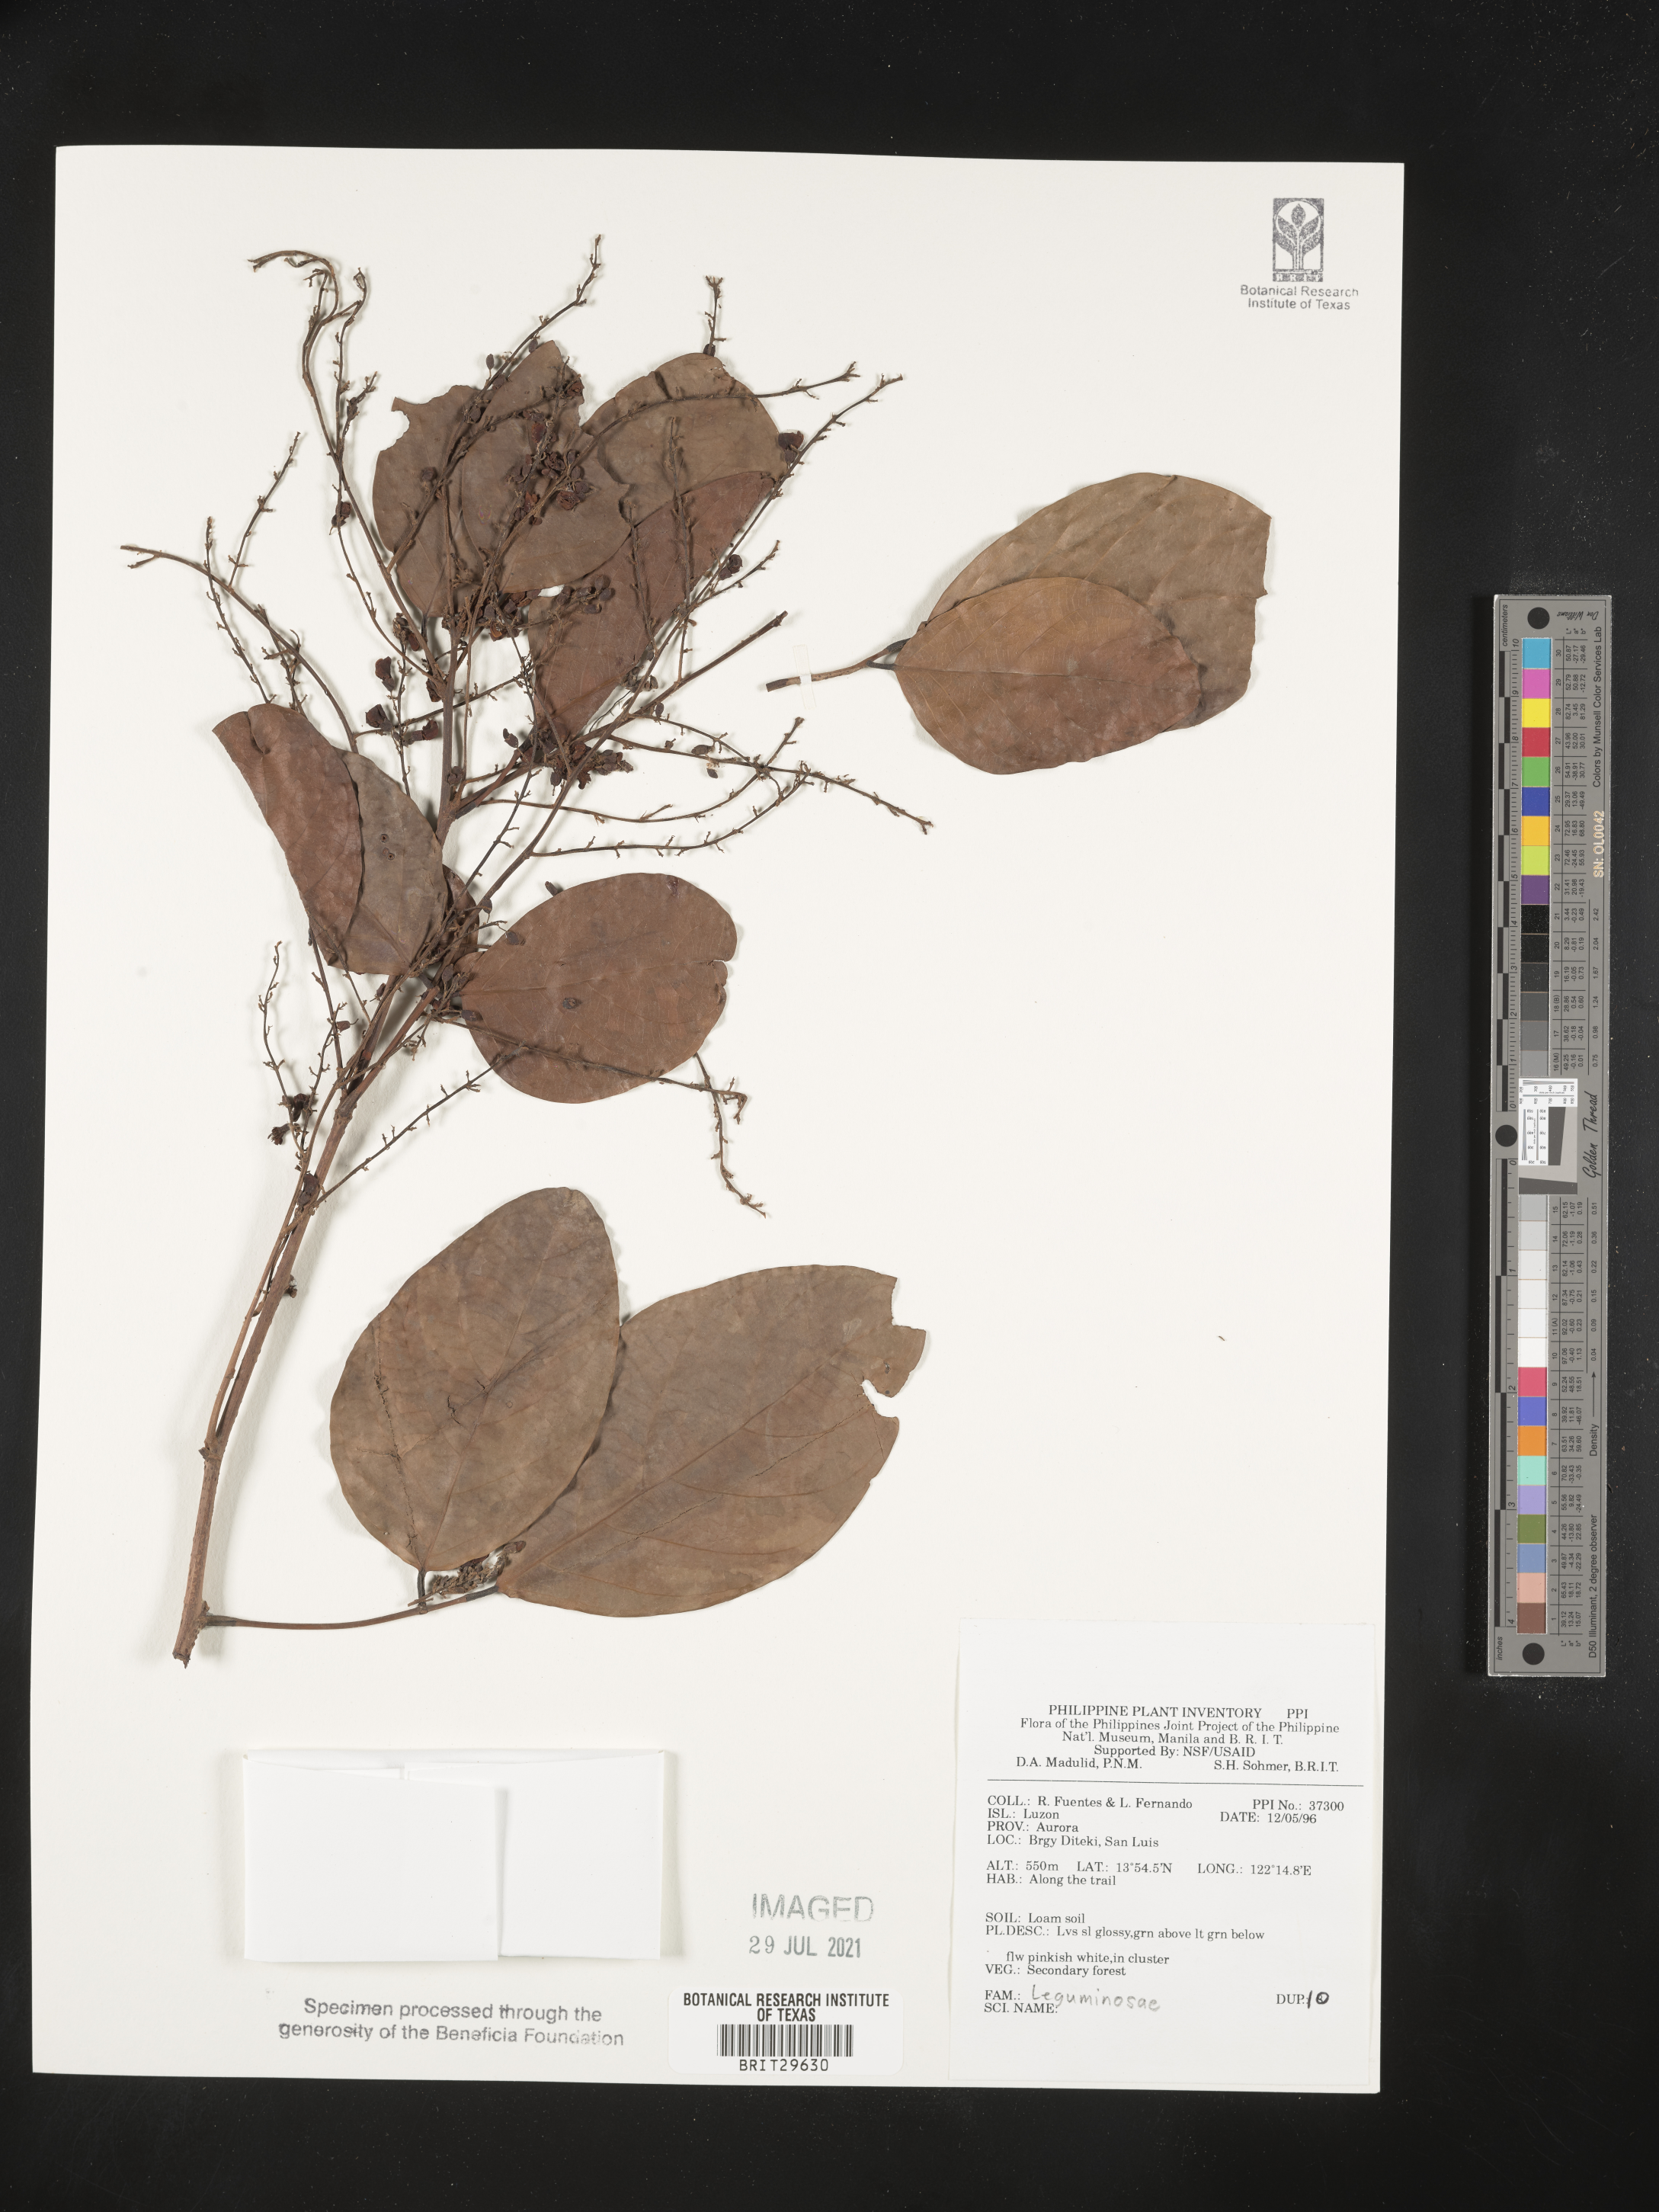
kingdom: Plantae
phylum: Tracheophyta
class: Magnoliopsida
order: Fabales
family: Fabaceae
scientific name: Fabaceae
